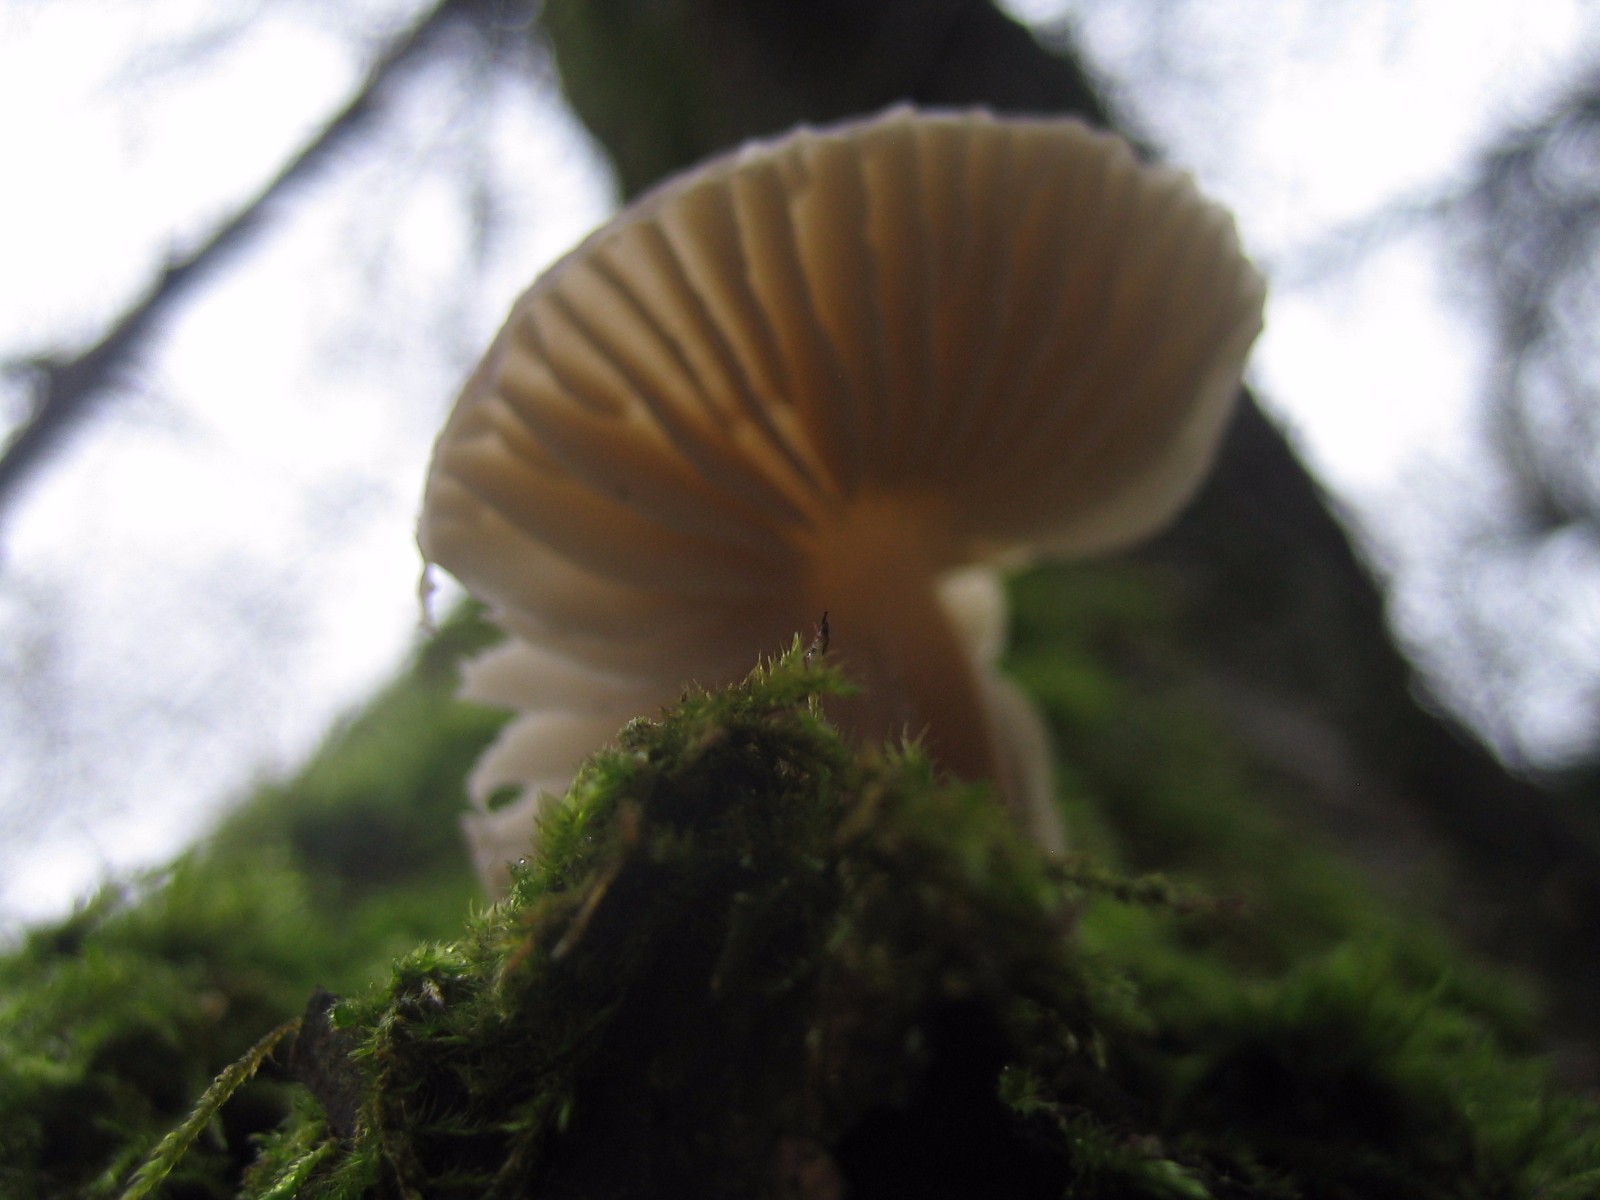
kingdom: Fungi
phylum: Basidiomycota
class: Agaricomycetes
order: Agaricales
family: Mycenaceae
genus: Mycena
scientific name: Mycena galericulata
